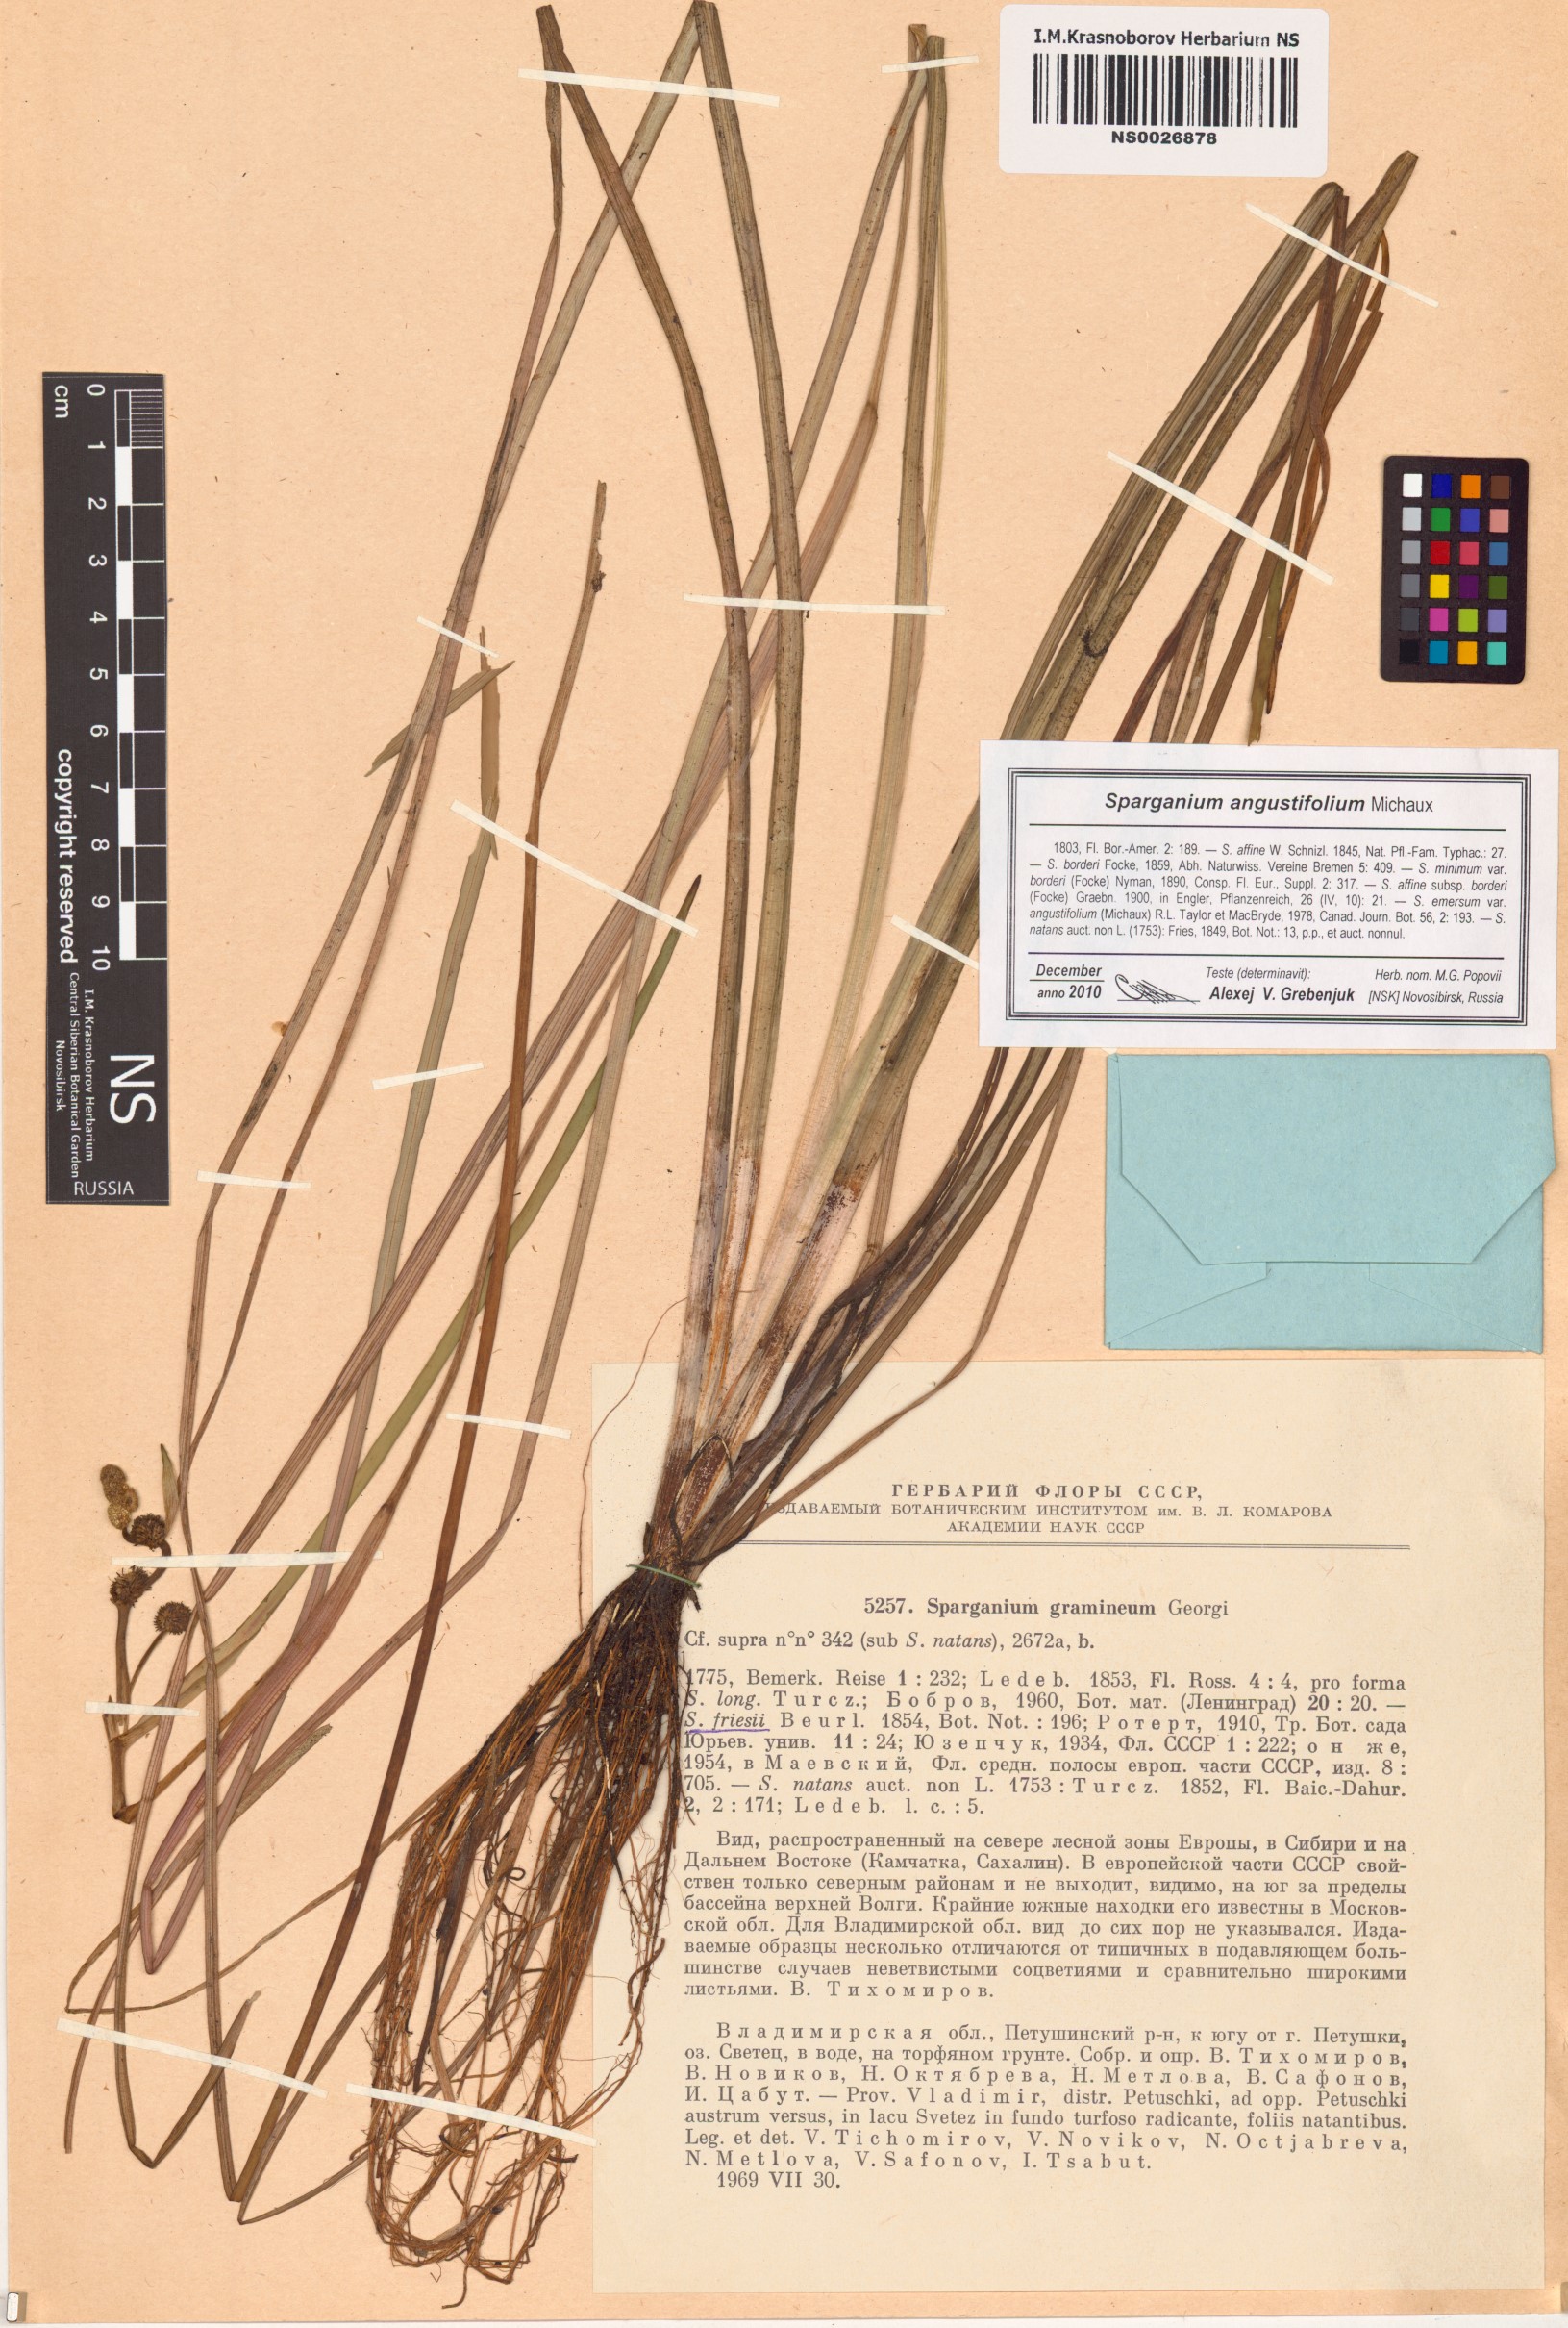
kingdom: Plantae
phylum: Tracheophyta
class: Liliopsida
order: Poales
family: Typhaceae
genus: Sparganium
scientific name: Sparganium angustifolium
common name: Floating bur-reed
